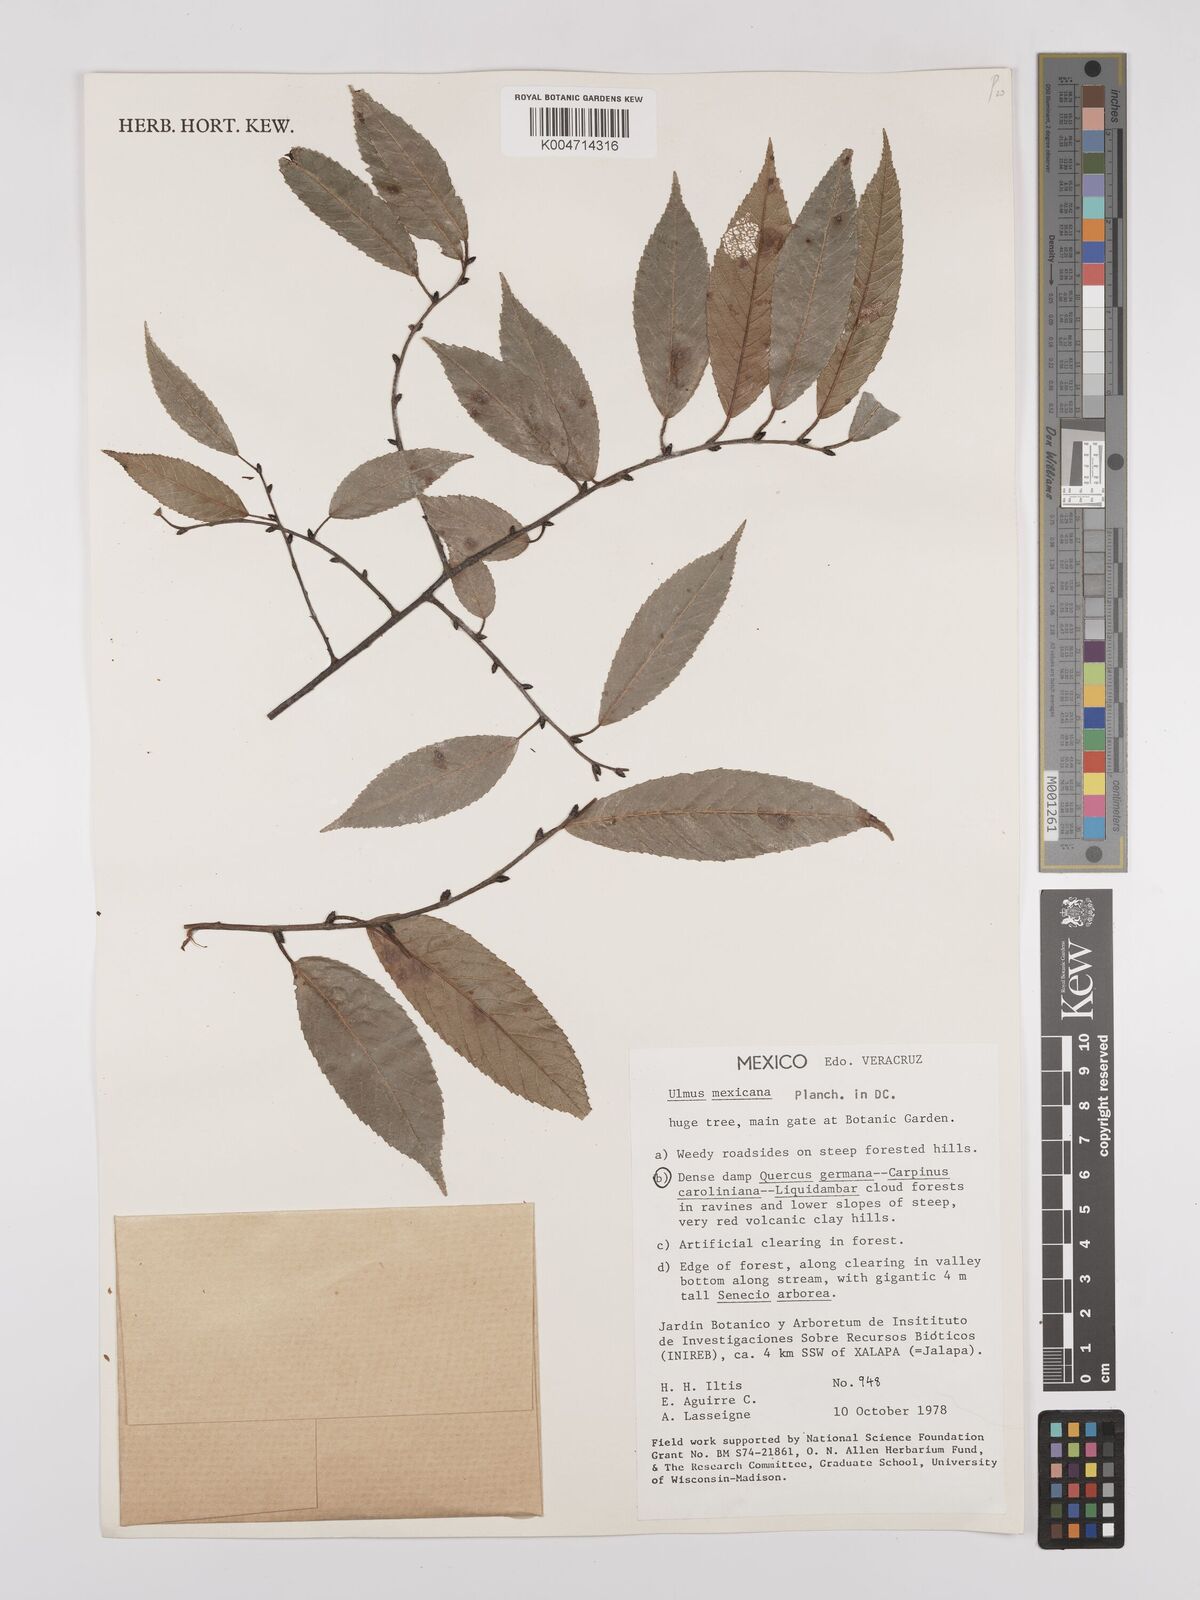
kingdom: Plantae
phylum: Tracheophyta
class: Magnoliopsida
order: Rosales
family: Ulmaceae
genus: Ulmus
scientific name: Ulmus mexicana
